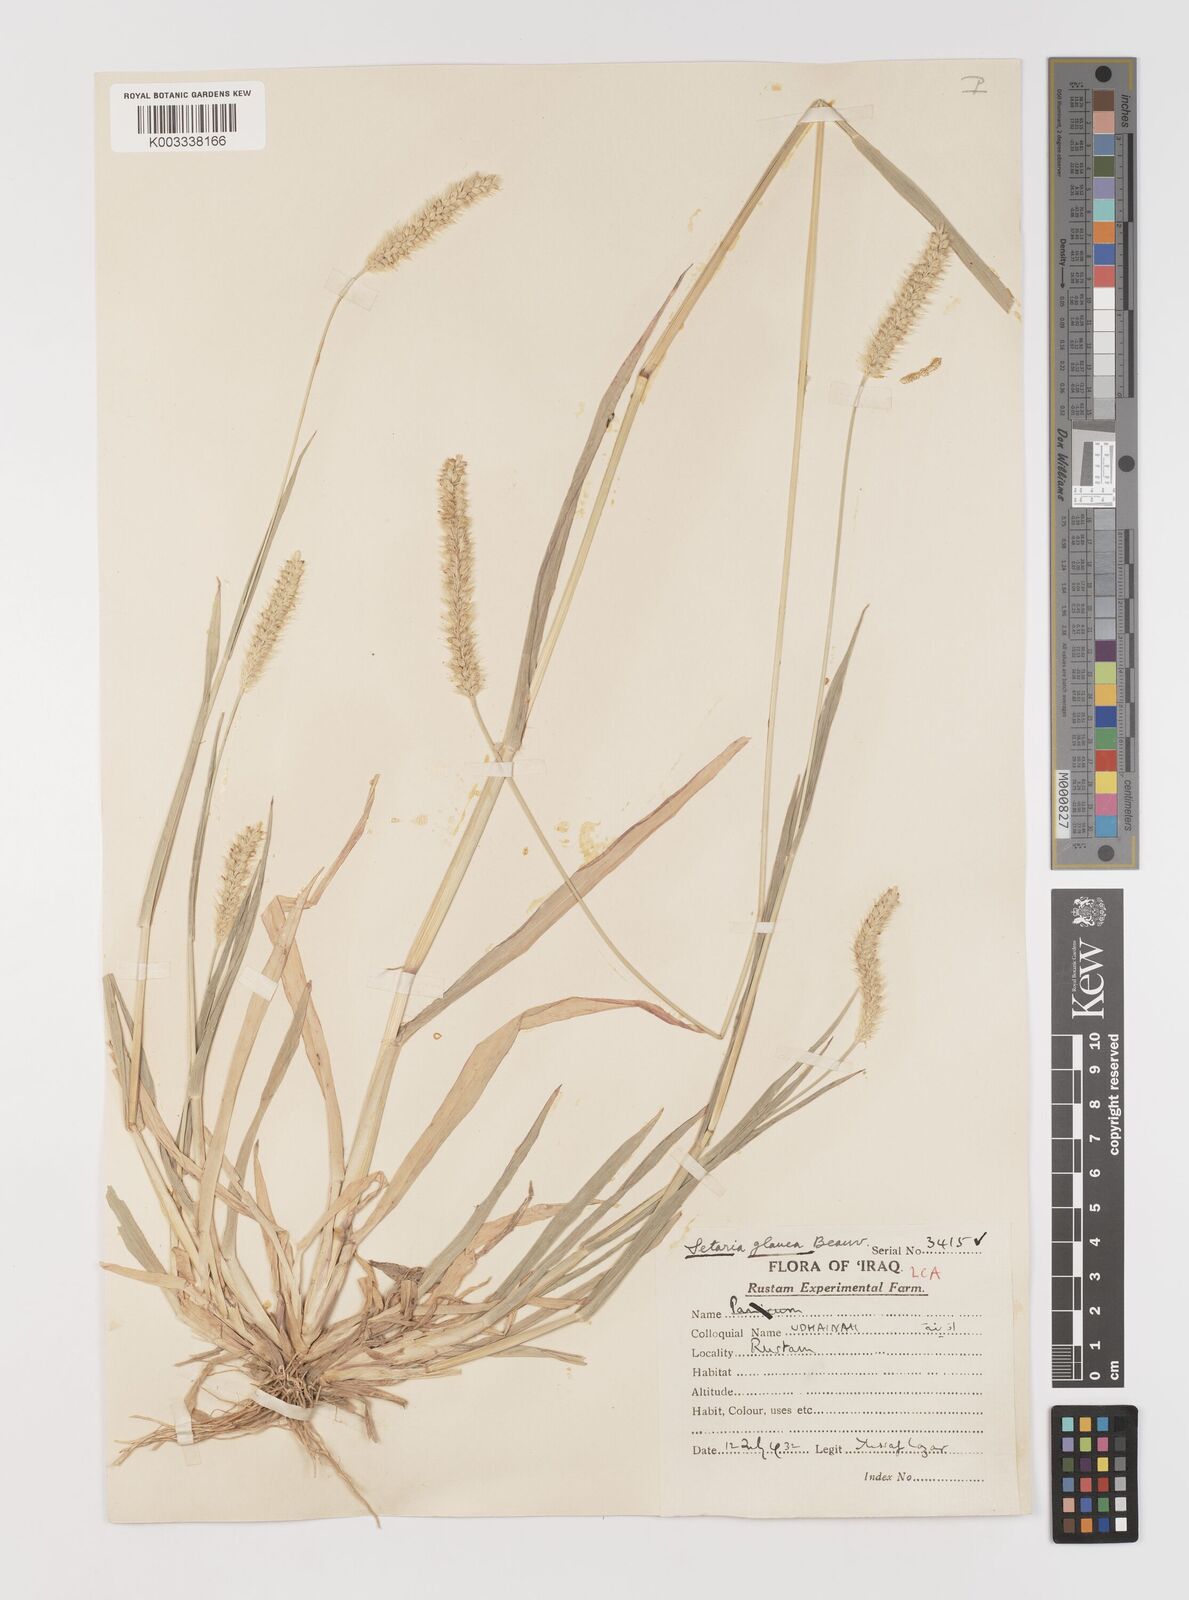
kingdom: Plantae
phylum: Tracheophyta
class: Liliopsida
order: Poales
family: Poaceae
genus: Setaria
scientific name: Setaria pumila
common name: Yellow bristle-grass
